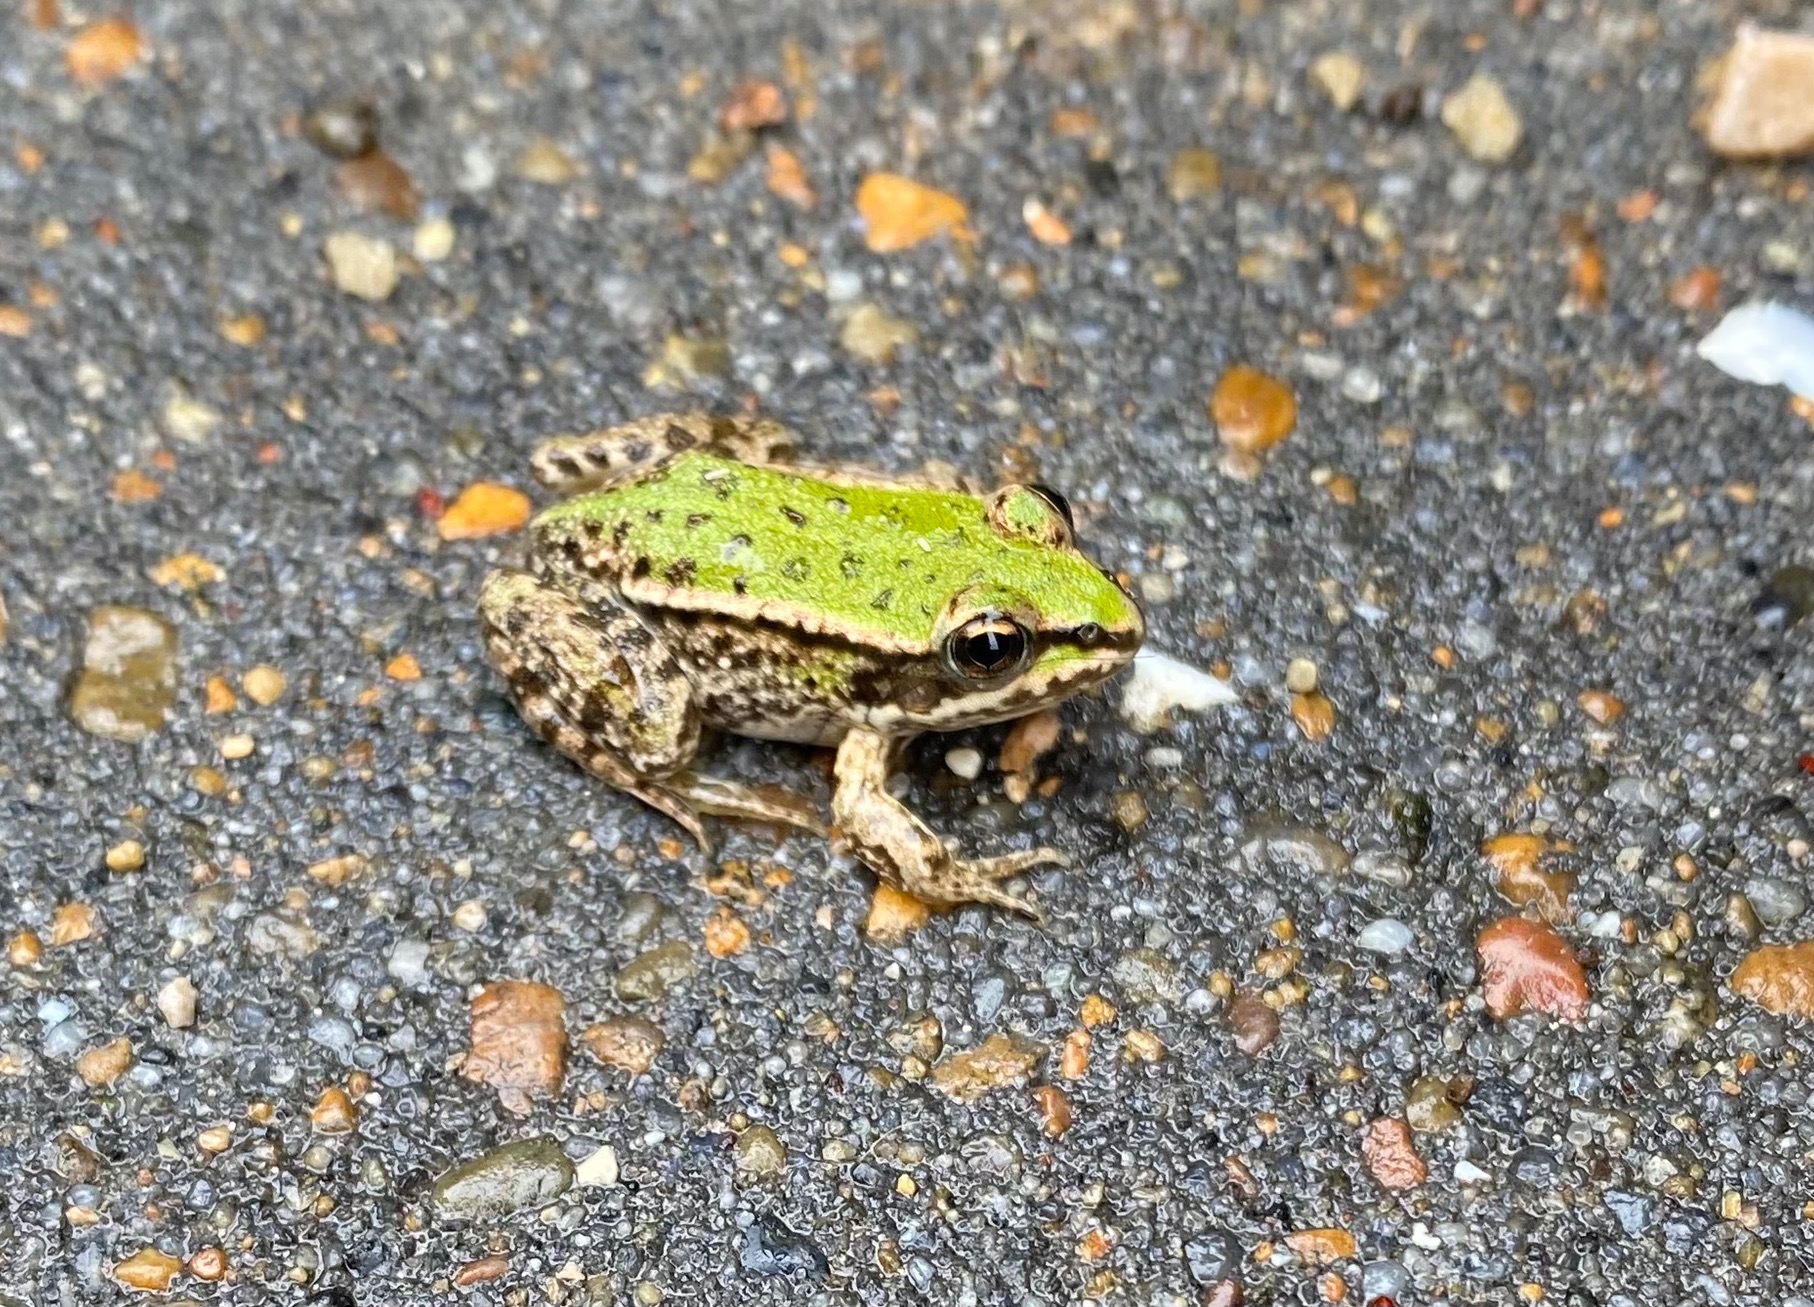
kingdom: Animalia
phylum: Chordata
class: Amphibia
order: Anura
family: Ranidae
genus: Pelophylax
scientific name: Pelophylax lessonae
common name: Grøn frø
